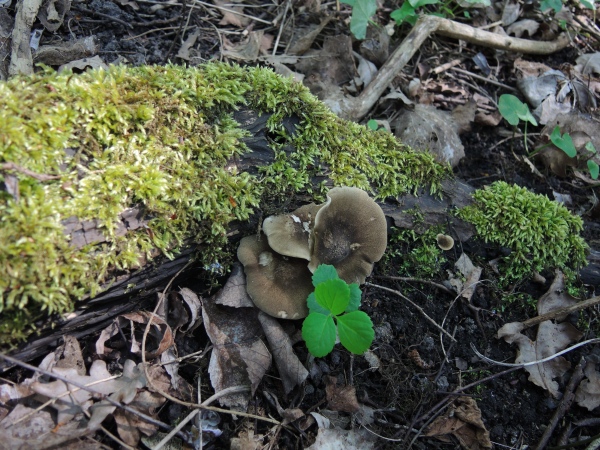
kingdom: Fungi
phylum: Basidiomycota
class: Agaricomycetes
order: Polyporales
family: Polyporaceae
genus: Lentinus
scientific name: Lentinus substrictus
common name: forårs-stilkporesvamp
